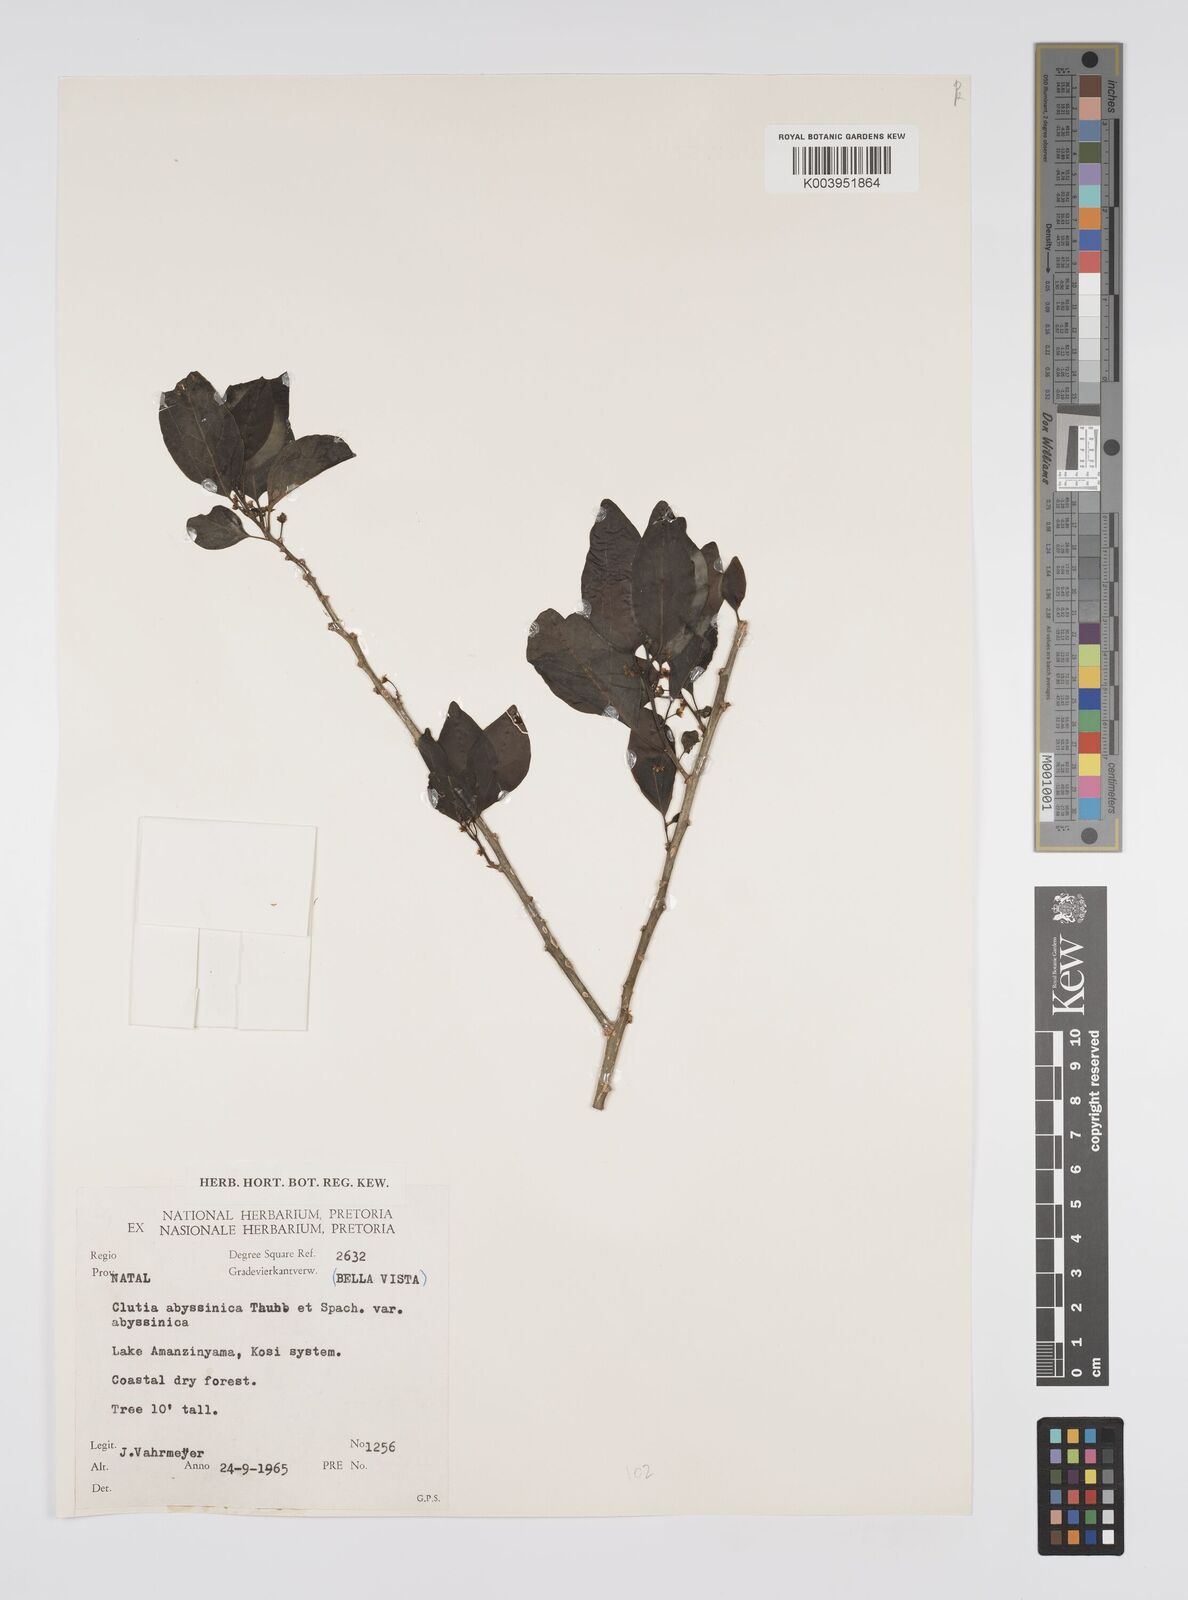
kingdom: Plantae
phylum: Tracheophyta
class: Magnoliopsida
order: Malpighiales
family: Peraceae
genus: Clutia
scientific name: Clutia abyssinica
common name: Large lightning bush
